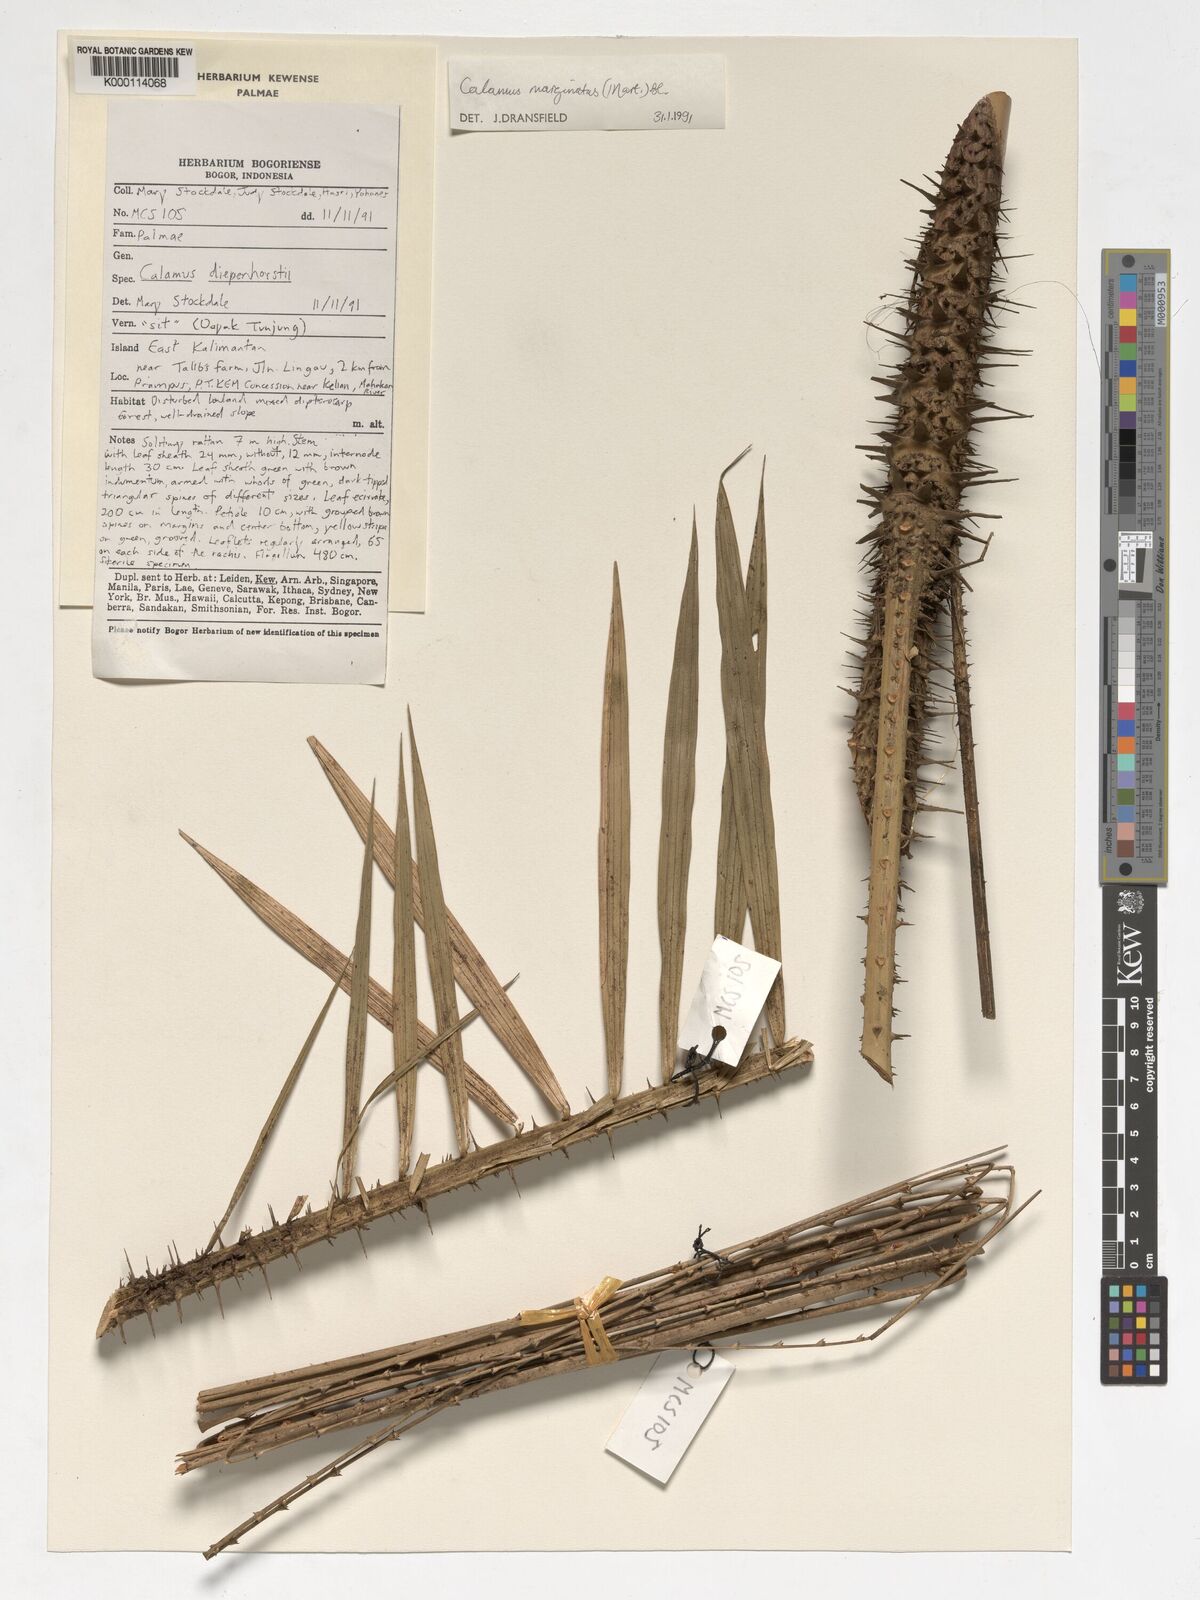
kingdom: Plantae
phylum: Tracheophyta
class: Liliopsida
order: Arecales
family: Arecaceae
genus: Calamus
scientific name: Calamus
